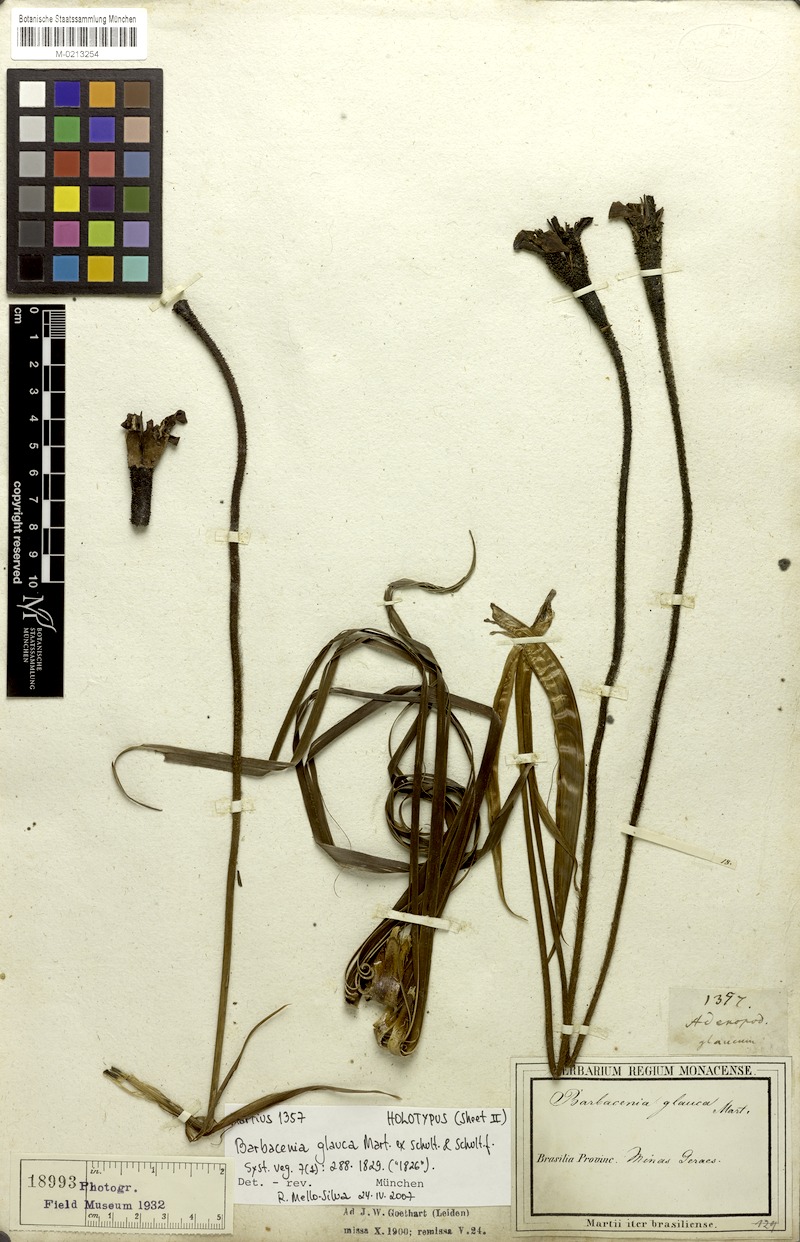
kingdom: Plantae
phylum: Tracheophyta
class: Liliopsida
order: Pandanales
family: Velloziaceae
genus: Barbacenia
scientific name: Barbacenia glauca
